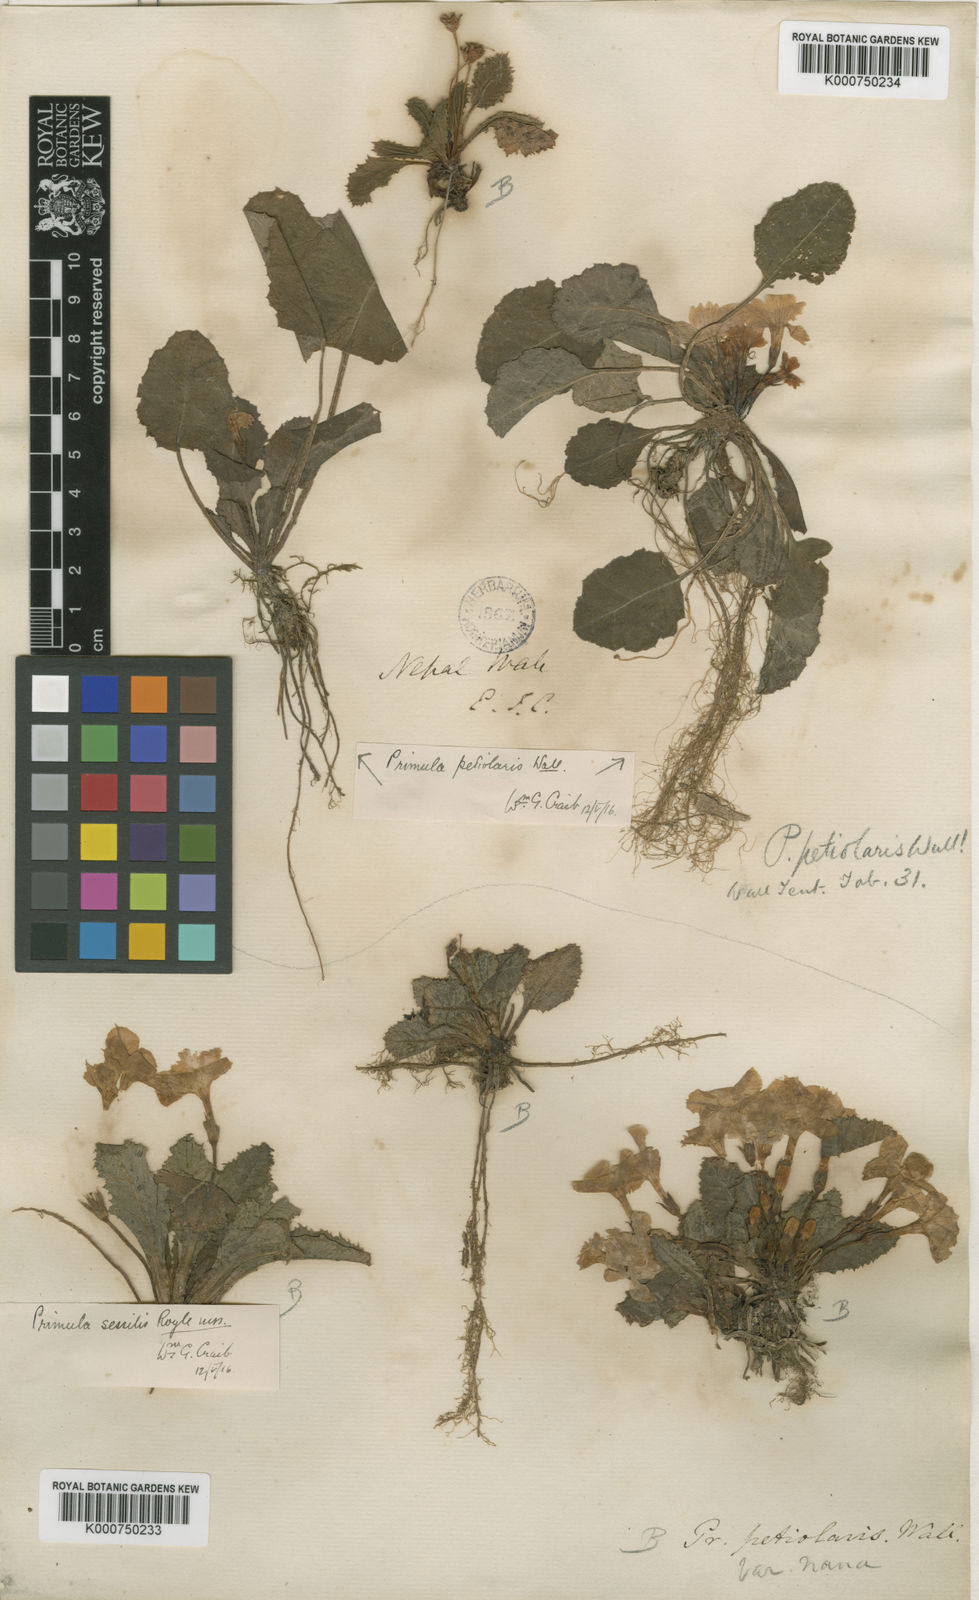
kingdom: Plantae
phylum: Tracheophyta
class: Magnoliopsida
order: Ericales
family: Primulaceae
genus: Primula
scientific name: Primula petiolaris
